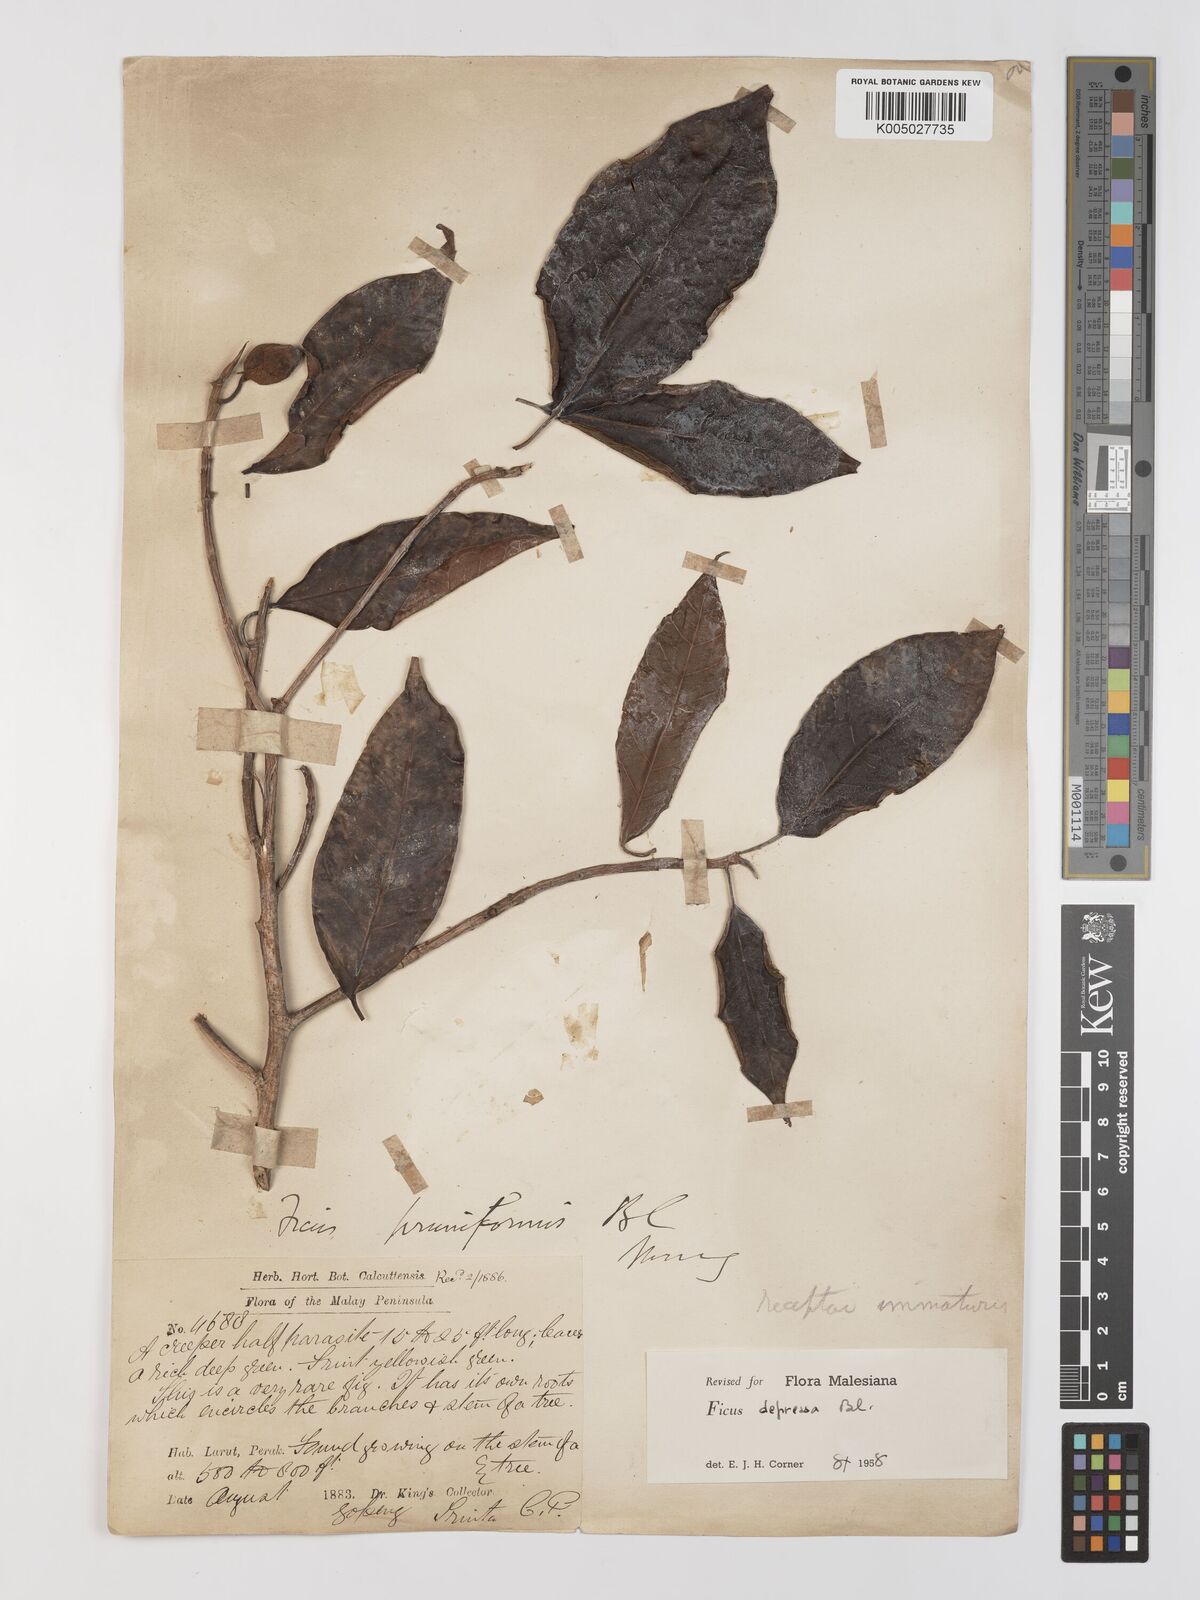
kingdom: Plantae
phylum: Tracheophyta
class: Magnoliopsida
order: Rosales
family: Moraceae
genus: Ficus
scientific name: Ficus
